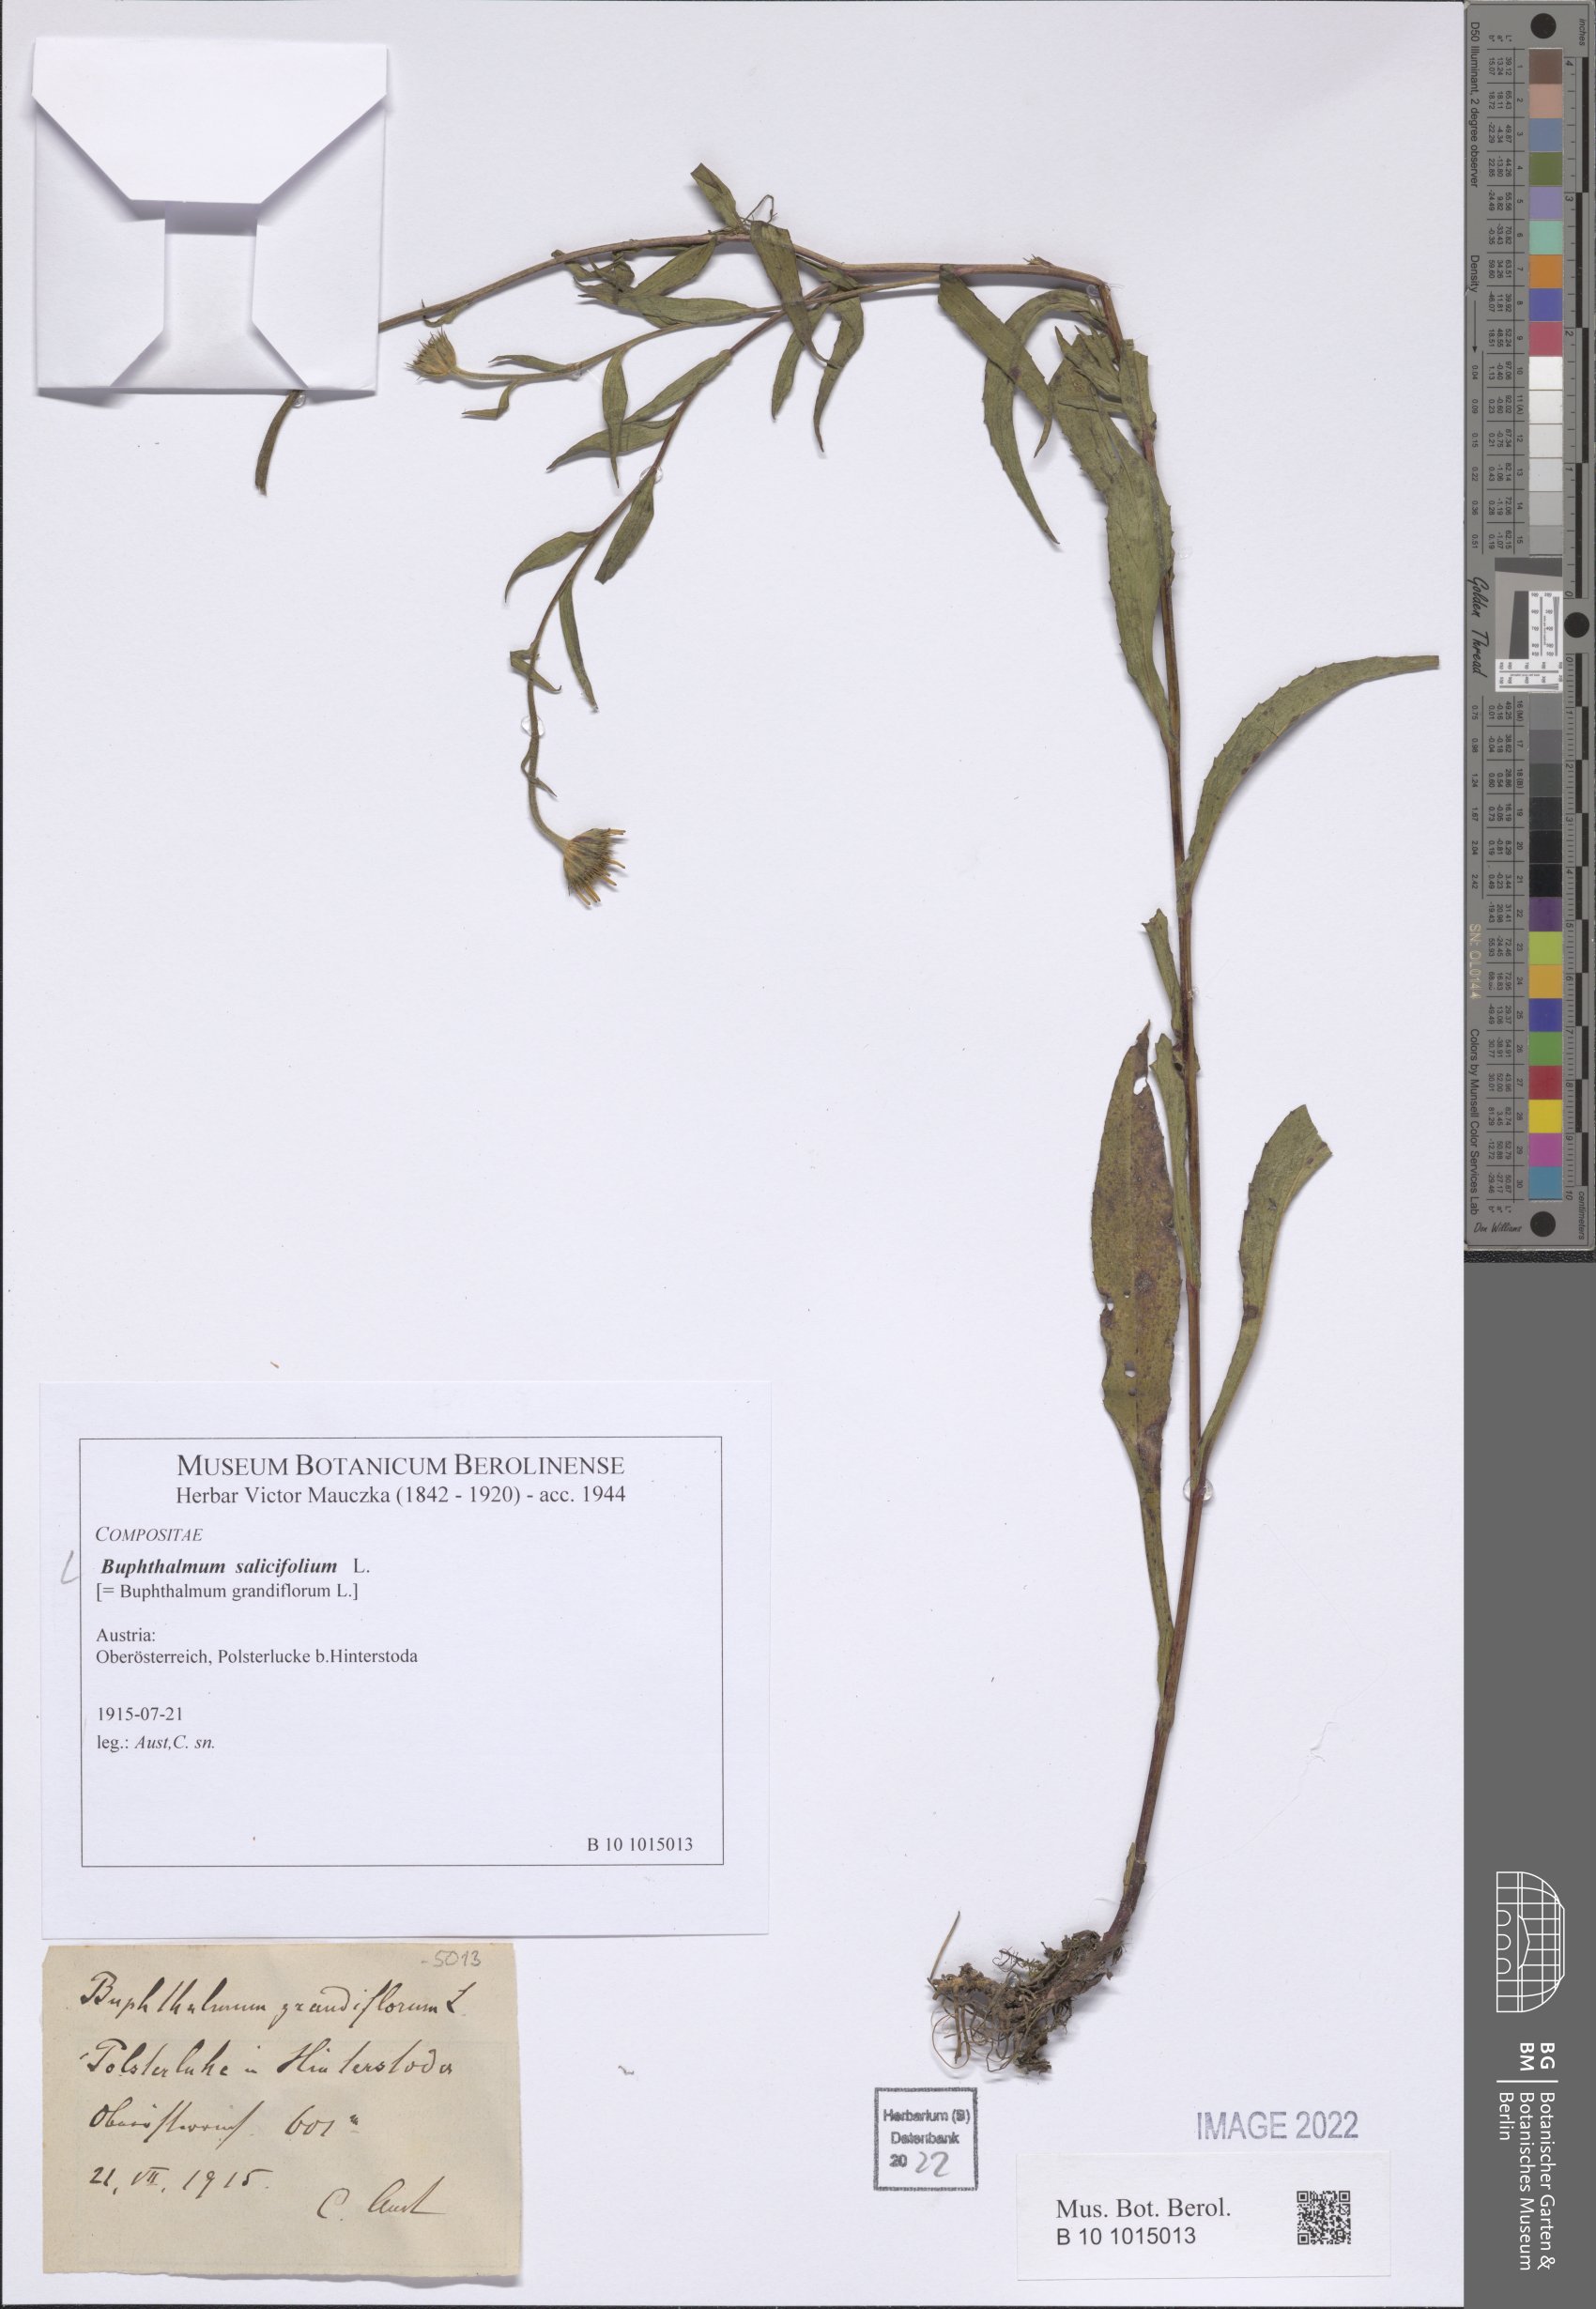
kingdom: Plantae
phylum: Tracheophyta
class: Magnoliopsida
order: Asterales
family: Asteraceae
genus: Buphthalmum
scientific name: Buphthalmum salicifolium
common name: Willow-leaved yellow-oxeye
